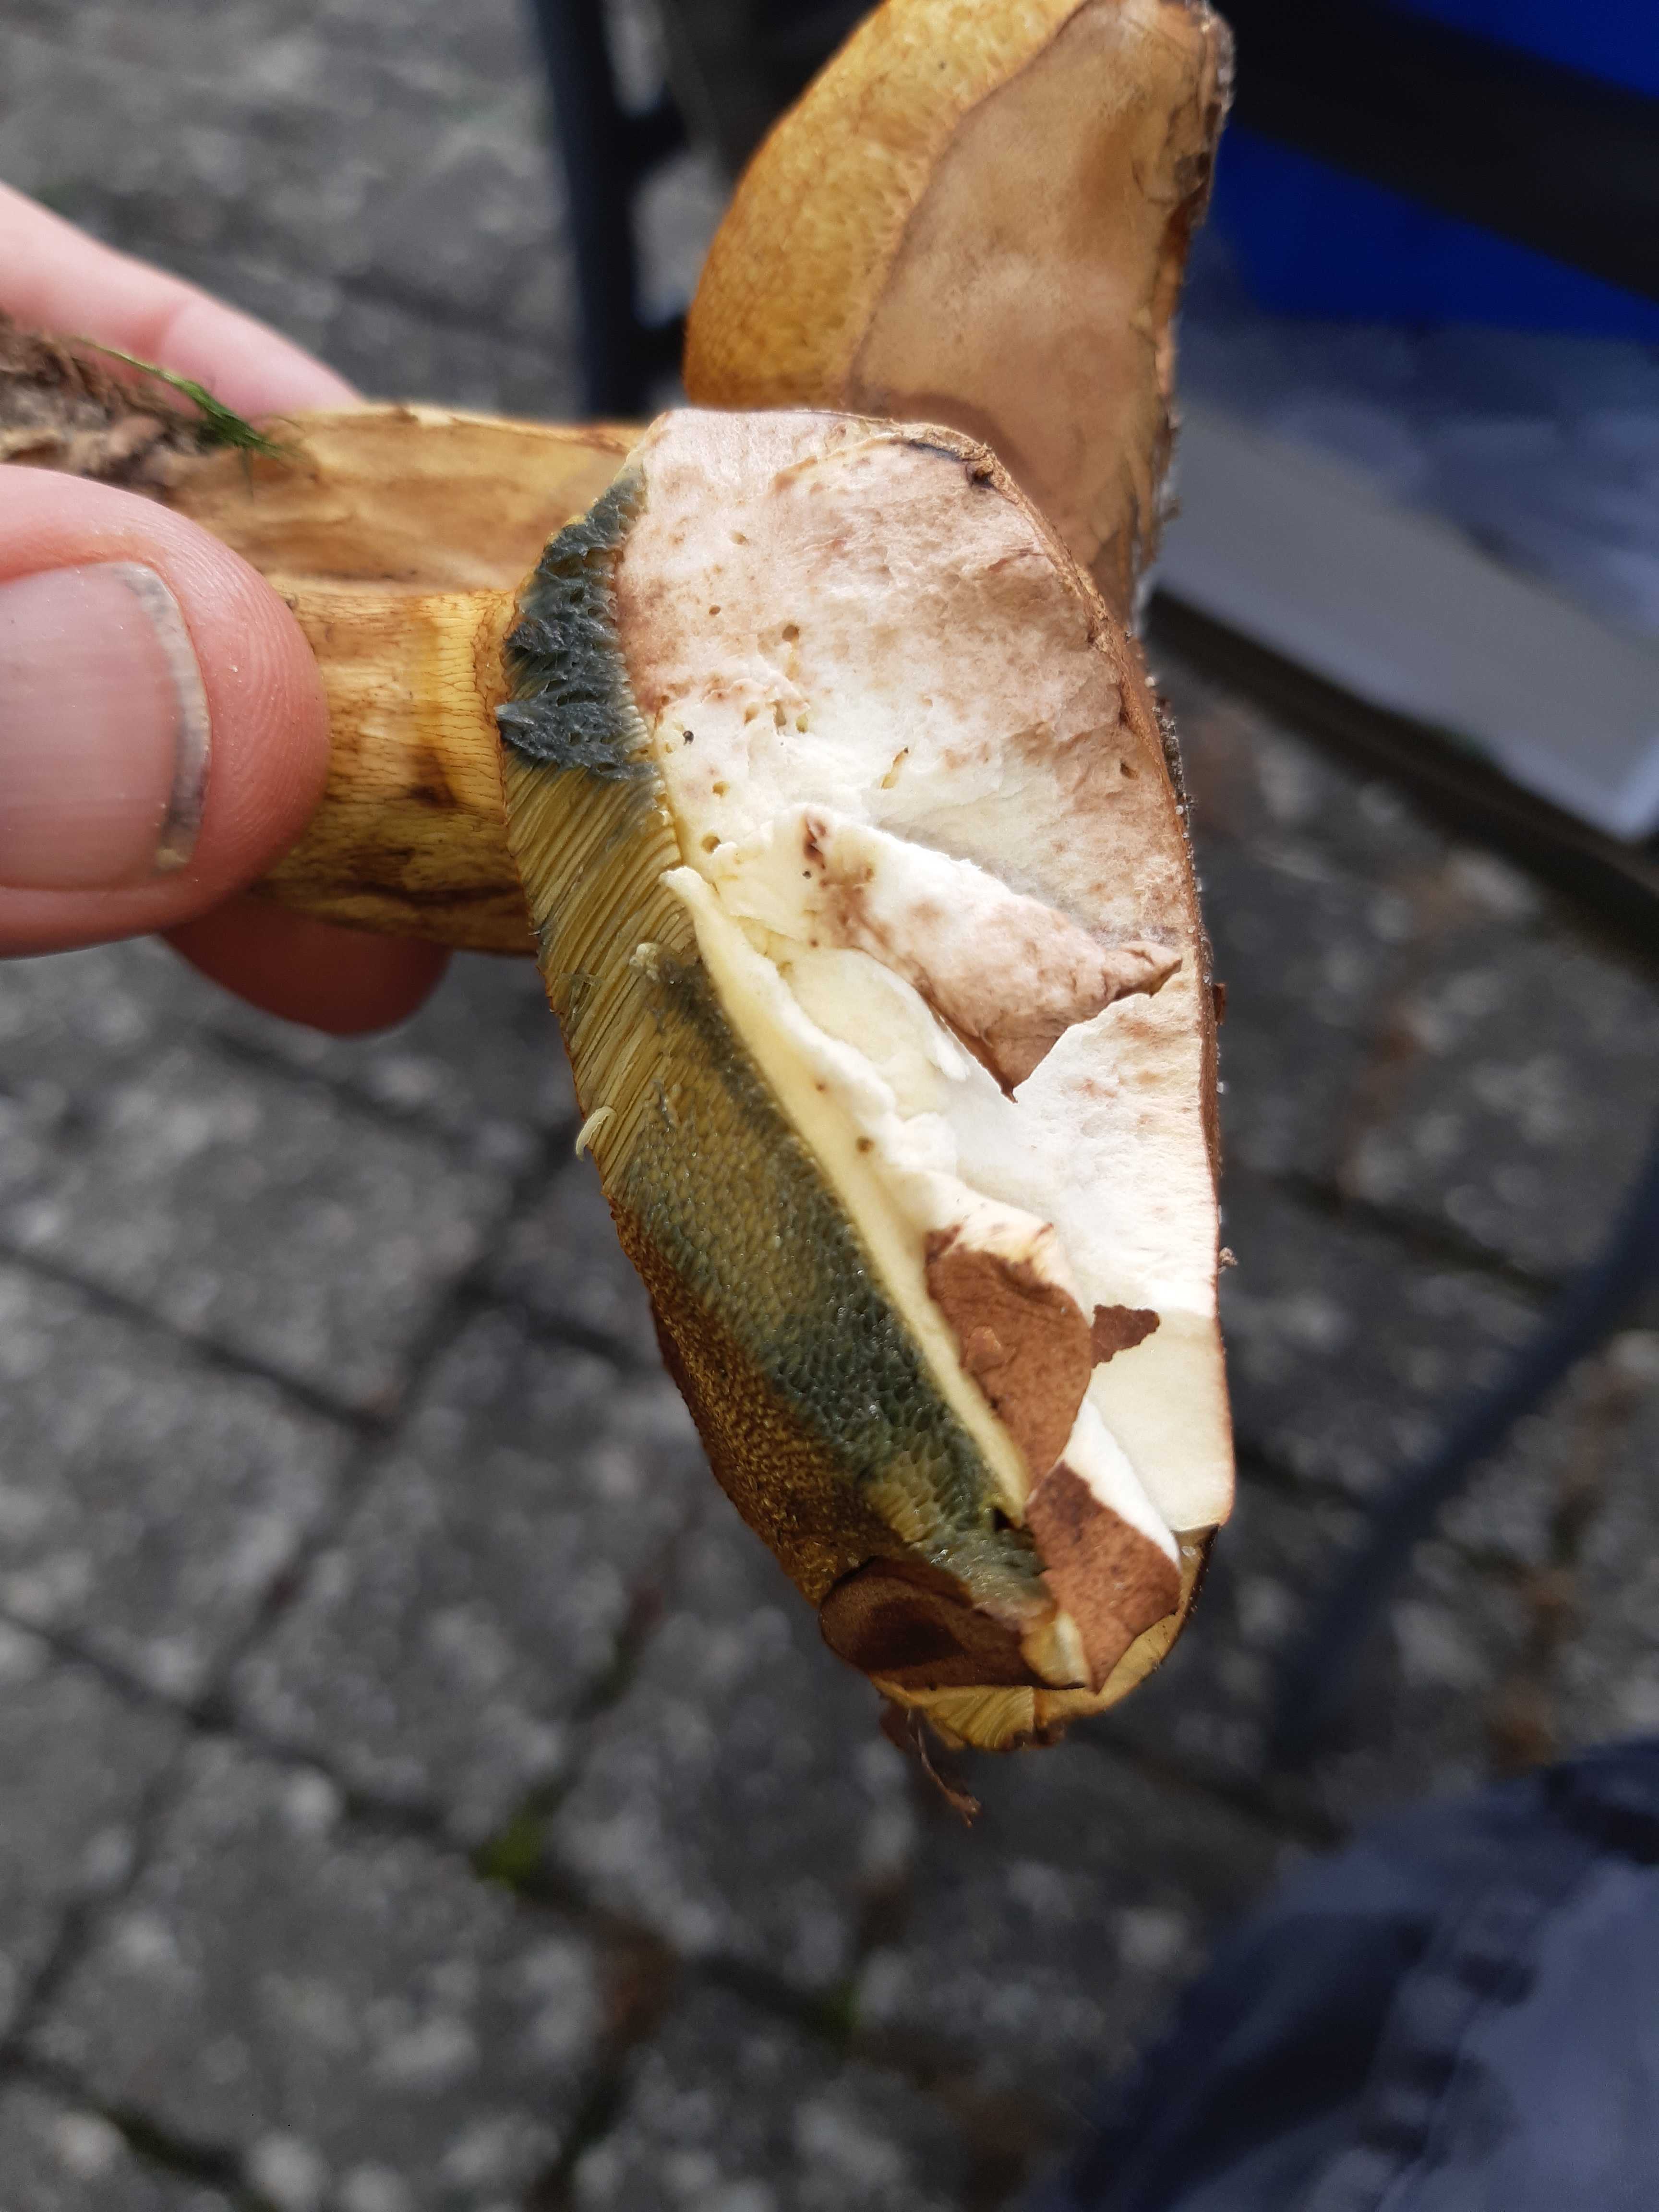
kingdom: Fungi
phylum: Basidiomycota
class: Agaricomycetes
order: Boletales
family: Boletaceae
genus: Butyriboletus
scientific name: Butyriboletus appendiculatus
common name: tenstokket rørhat
